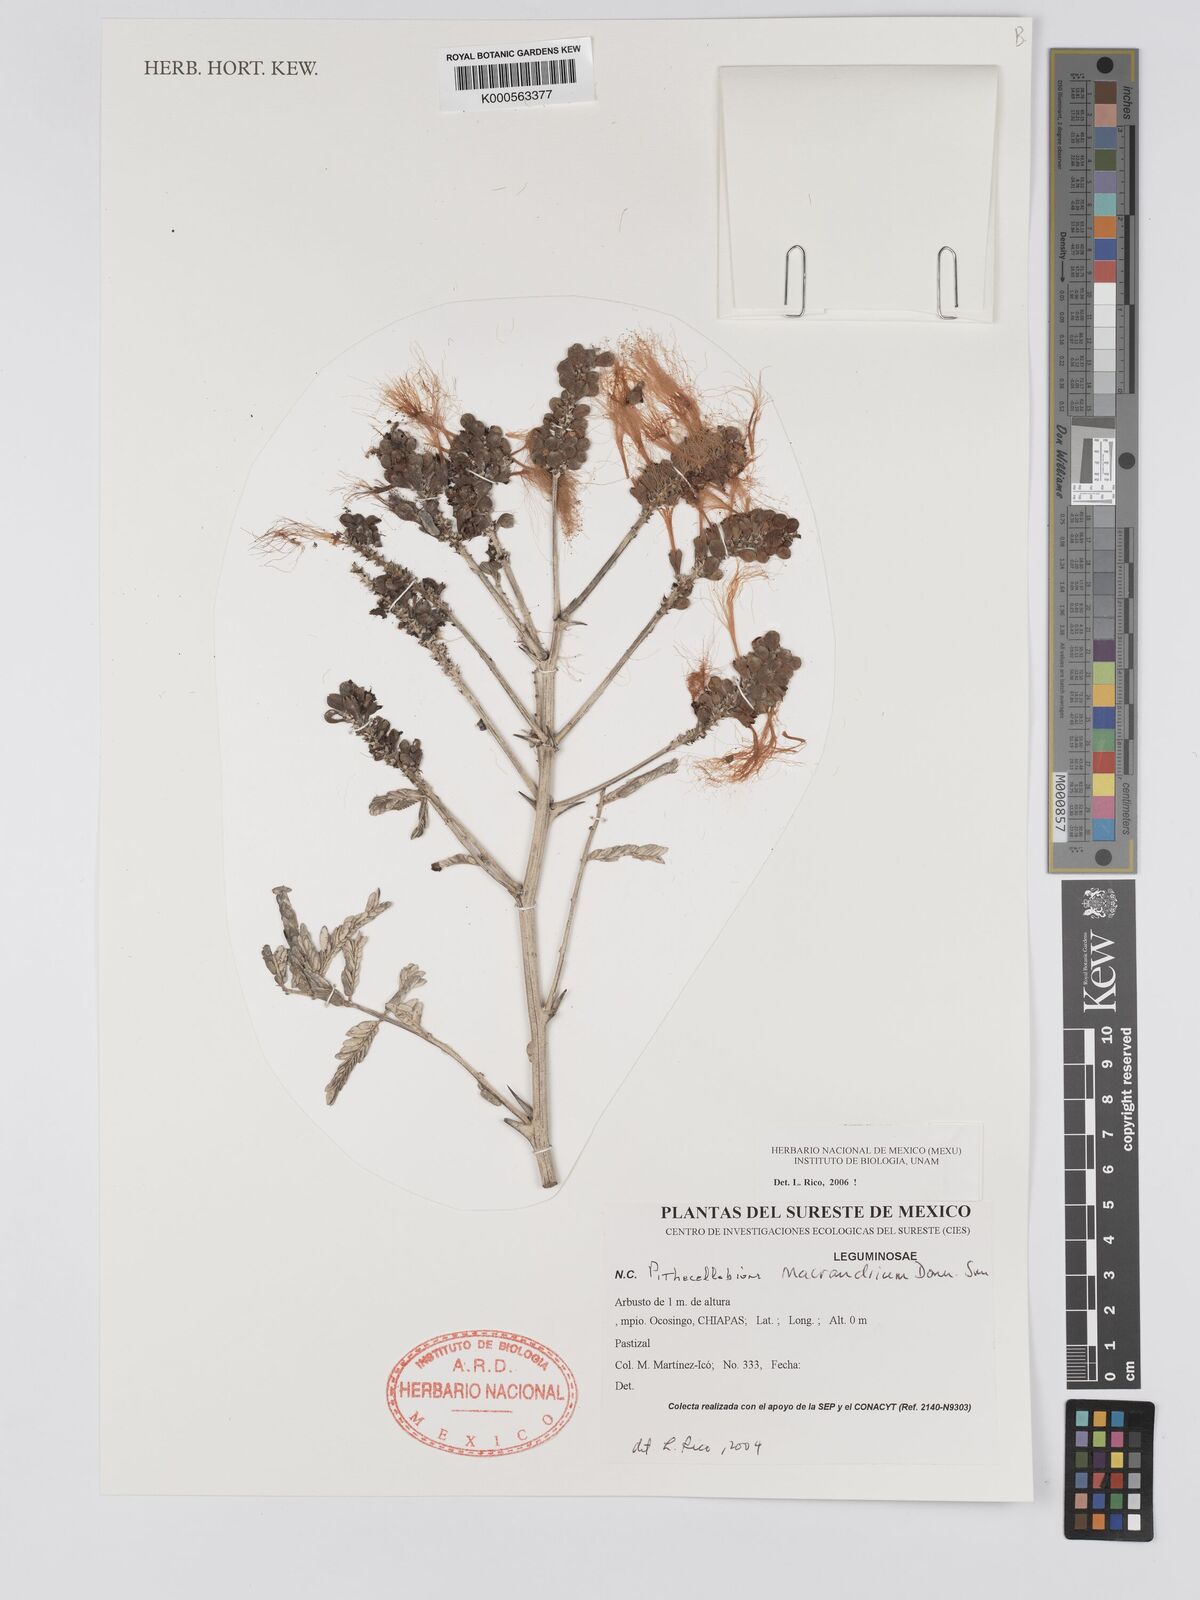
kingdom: Plantae
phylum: Tracheophyta
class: Magnoliopsida
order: Fabales
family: Fabaceae
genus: Pithecellobium
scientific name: Pithecellobium macrandrium
